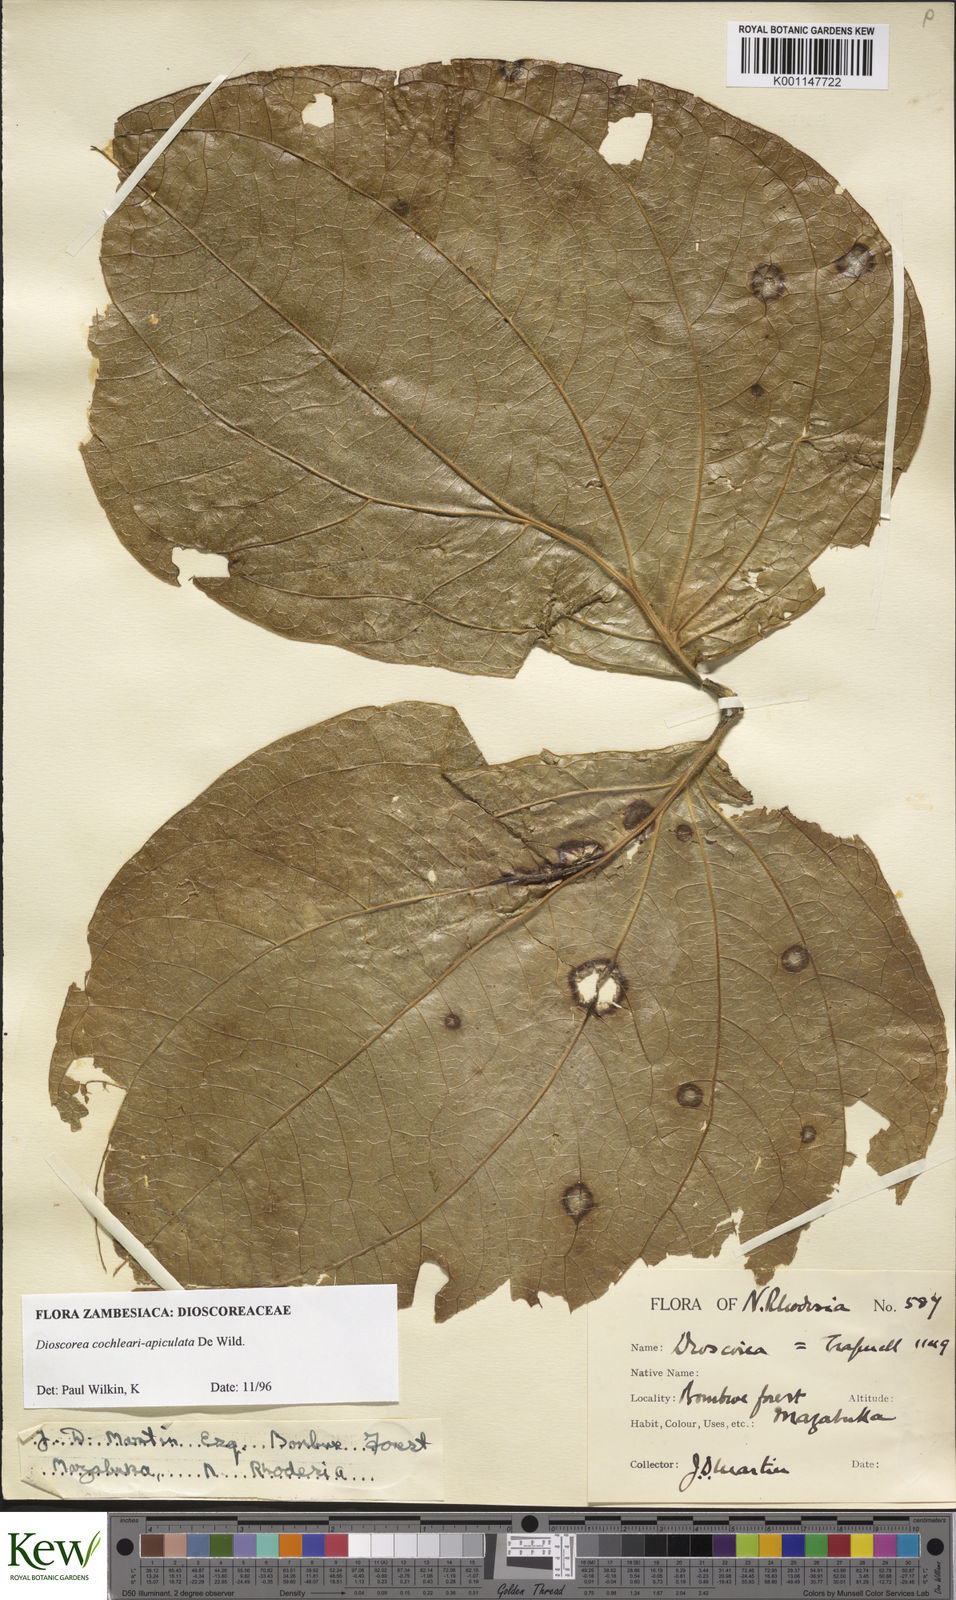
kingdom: Plantae
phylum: Tracheophyta
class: Liliopsida
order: Dioscoreales
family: Dioscoreaceae
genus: Dioscorea
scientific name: Dioscorea cochleariapiculata
